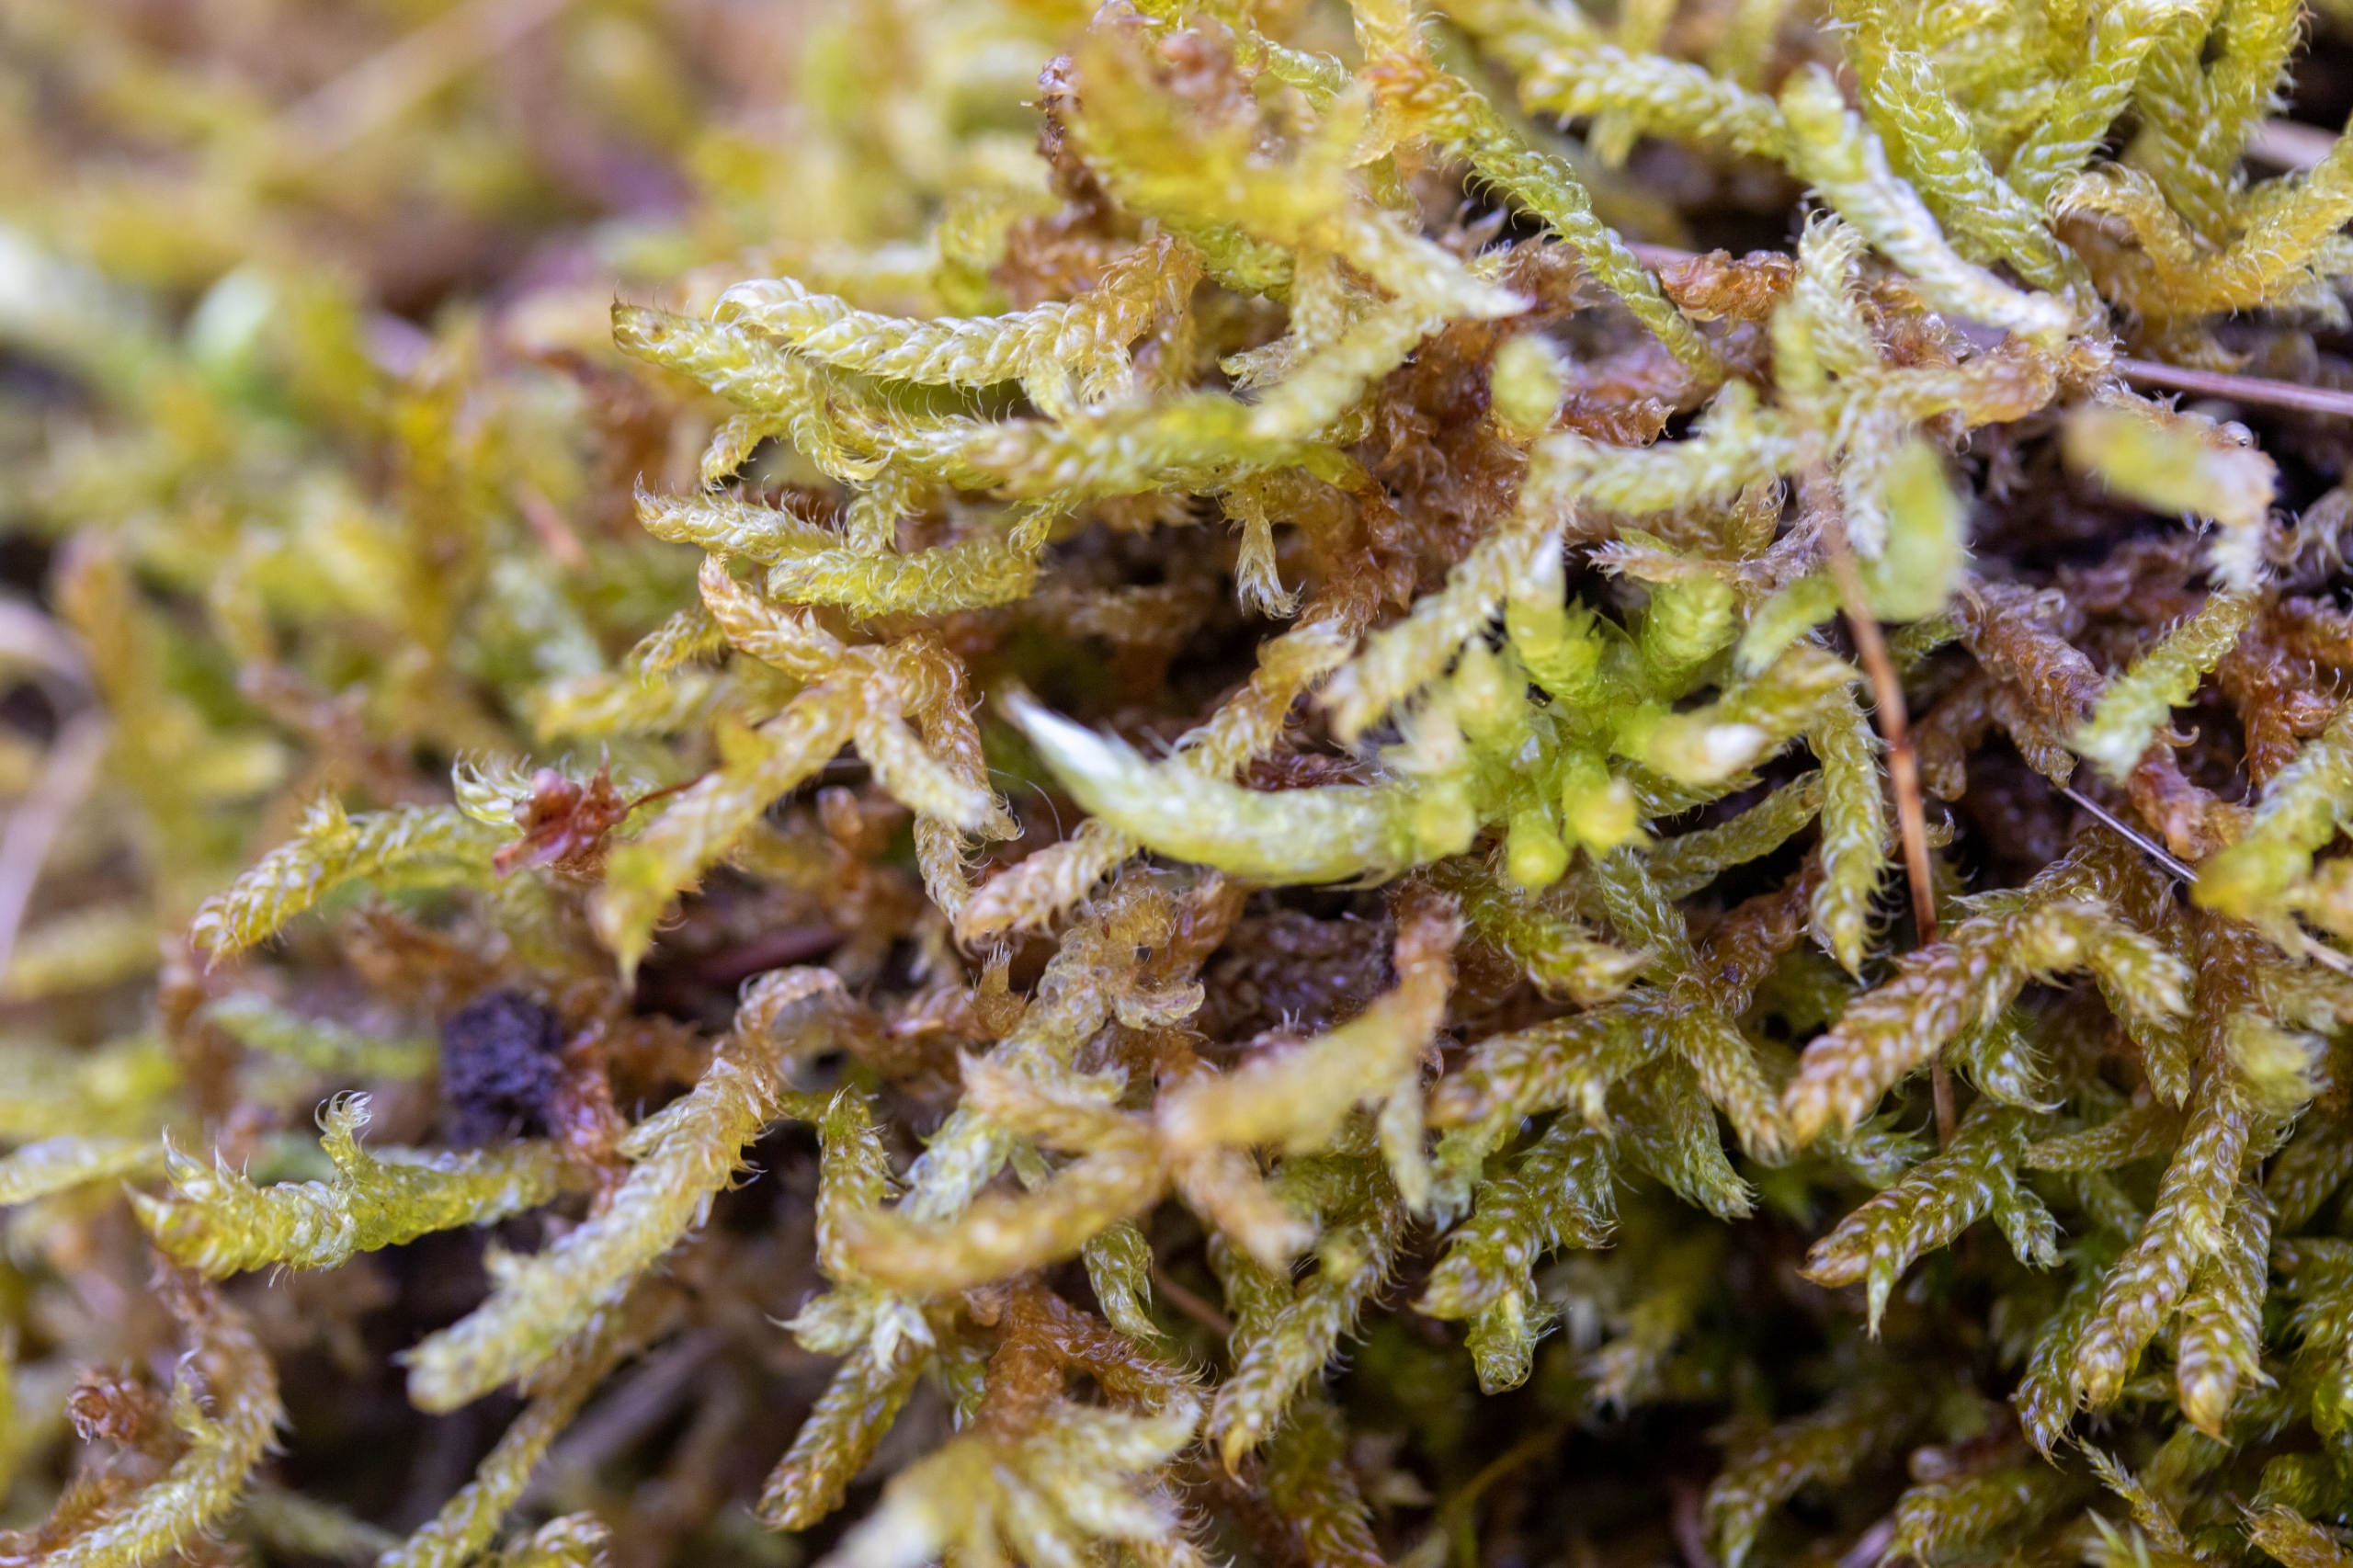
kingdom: Plantae
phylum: Bryophyta
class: Bryopsida
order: Hypnales
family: Hypnaceae
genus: Hypnum
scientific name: Hypnum cupressiforme
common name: Almindelig cypresmos
